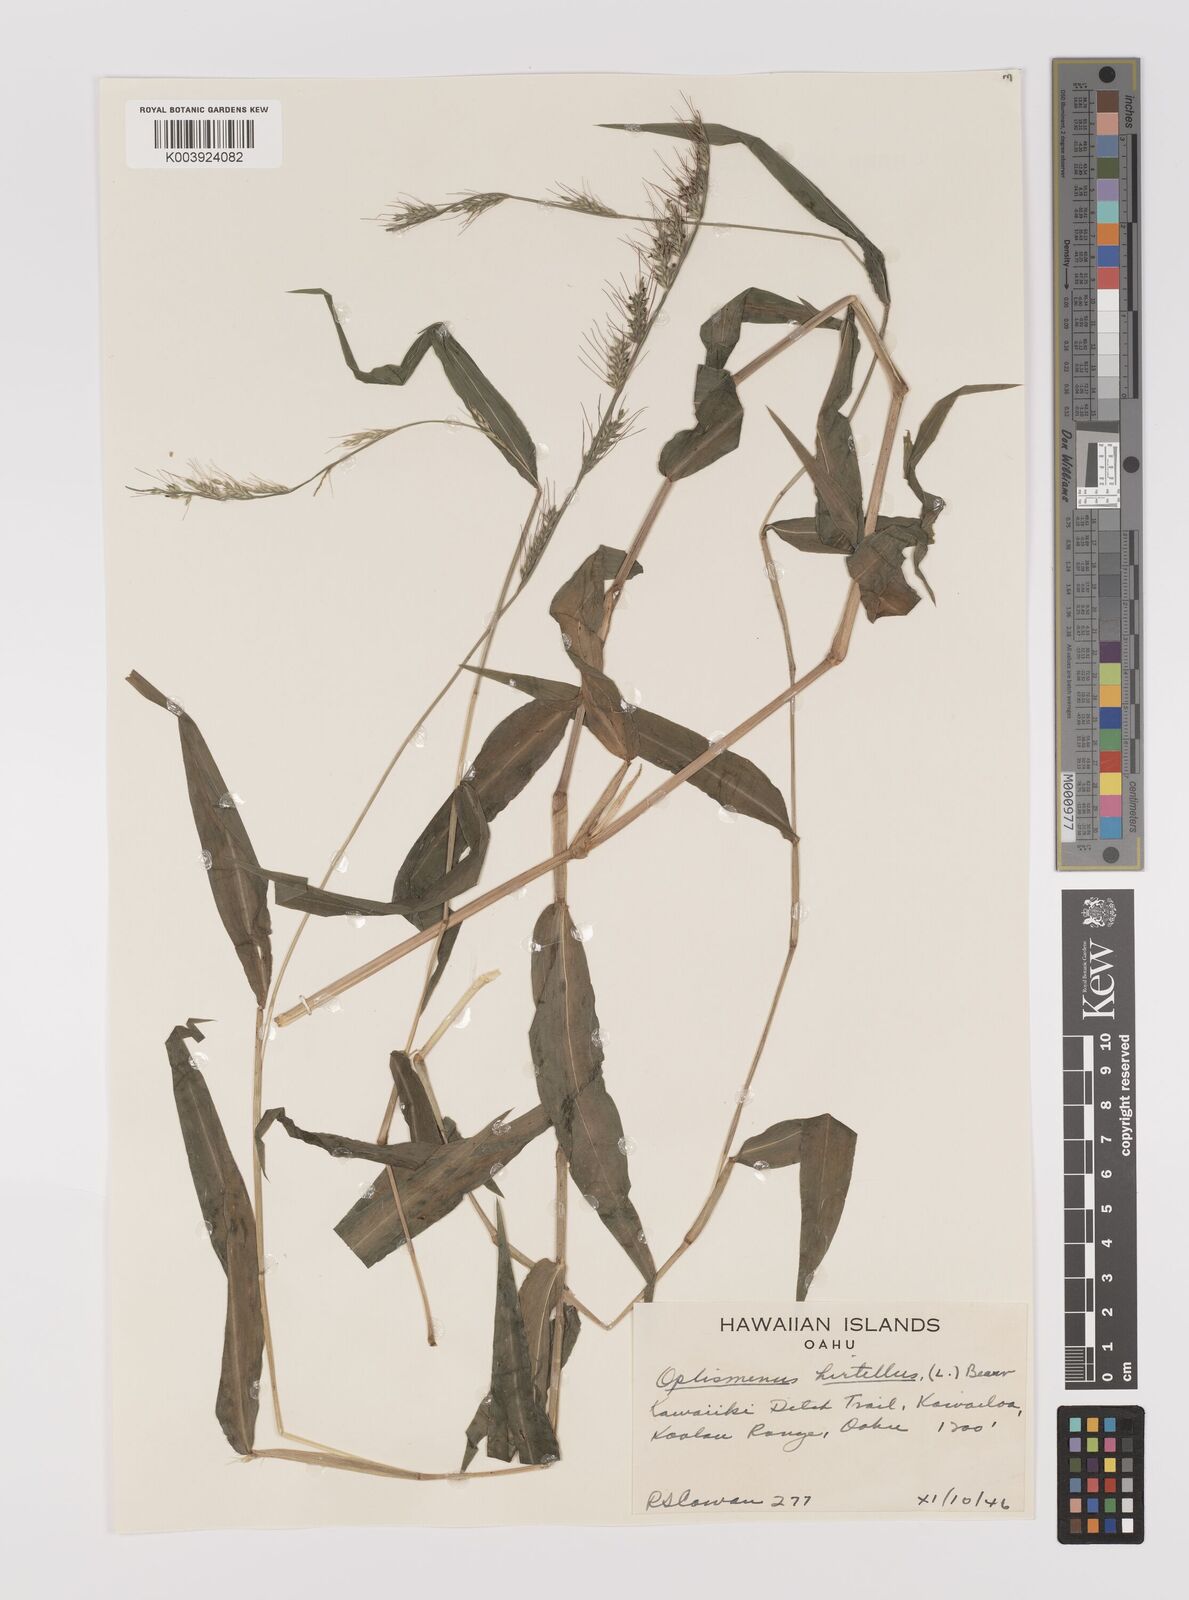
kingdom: Plantae
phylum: Tracheophyta
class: Liliopsida
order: Poales
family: Poaceae
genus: Oplismenus
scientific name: Oplismenus hirtellus
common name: Basketgrass
